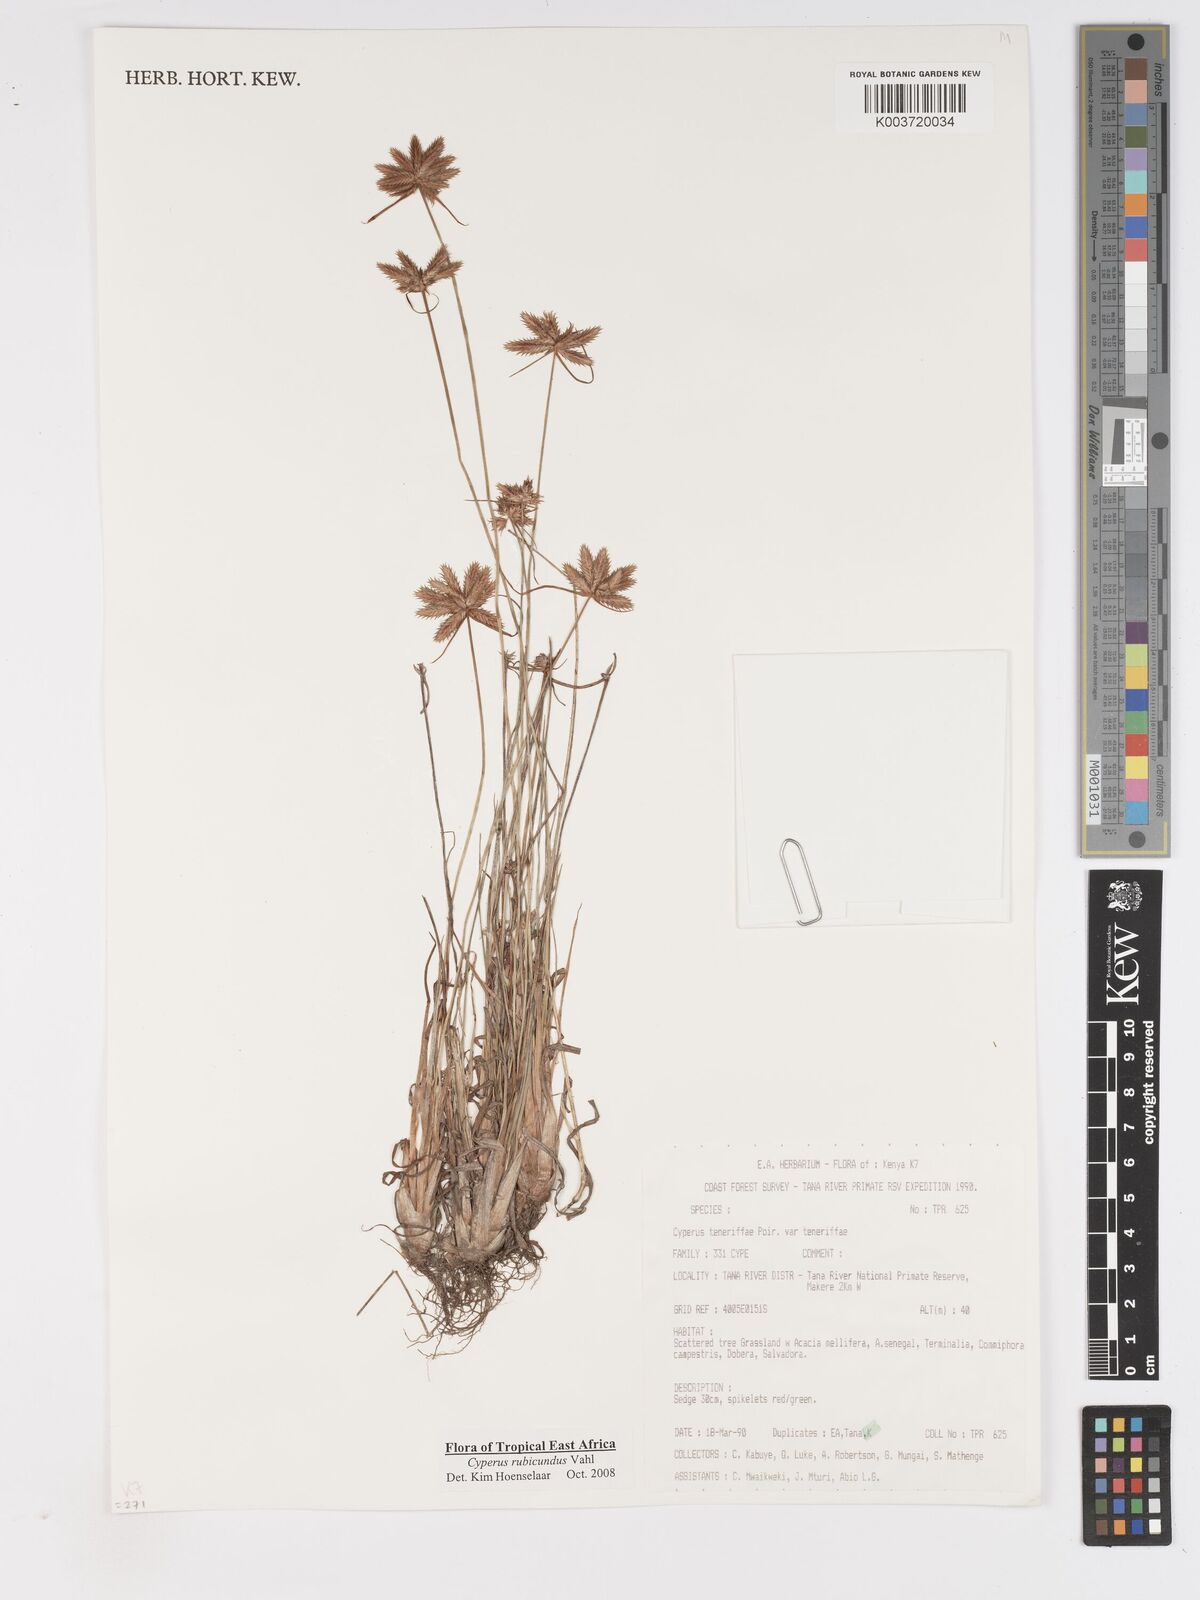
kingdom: Plantae
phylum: Tracheophyta
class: Liliopsida
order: Poales
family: Cyperaceae
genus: Cyperus
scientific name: Cyperus rubicundus
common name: Coco-grass
